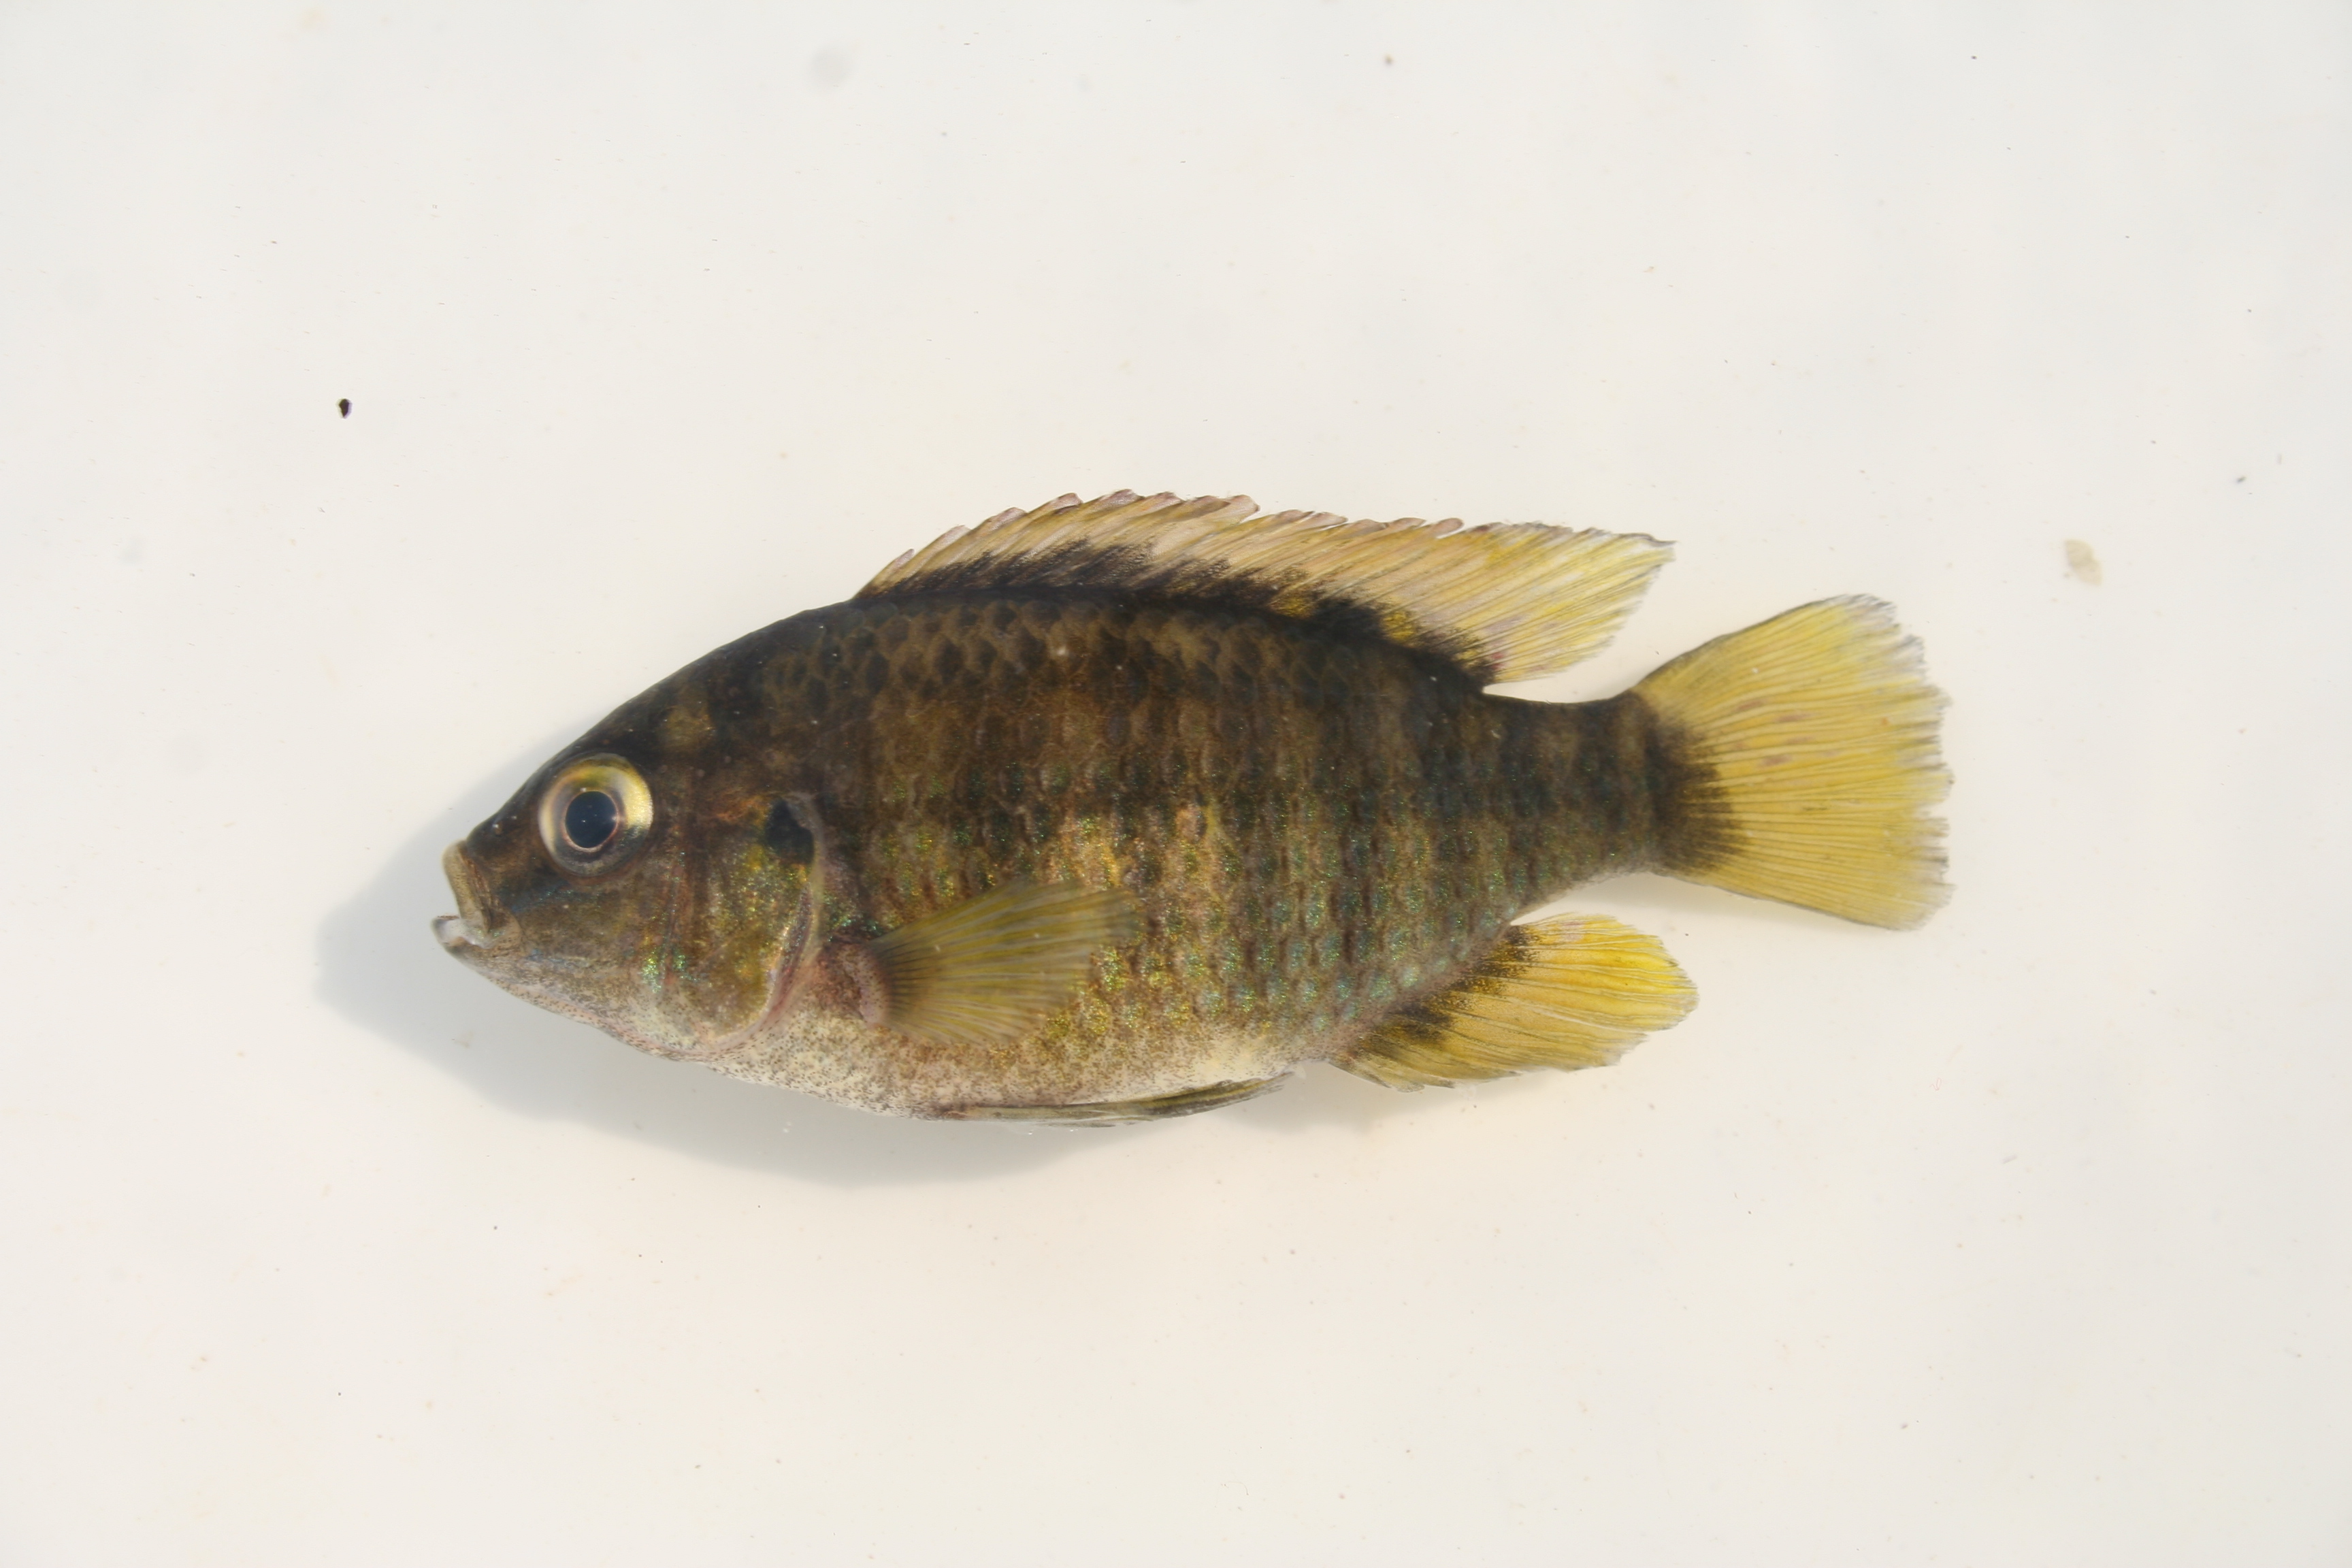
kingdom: Animalia
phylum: Chordata
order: Perciformes
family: Cichlidae
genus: Tilapia
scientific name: Tilapia sparrmanii
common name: Banded tilapia
